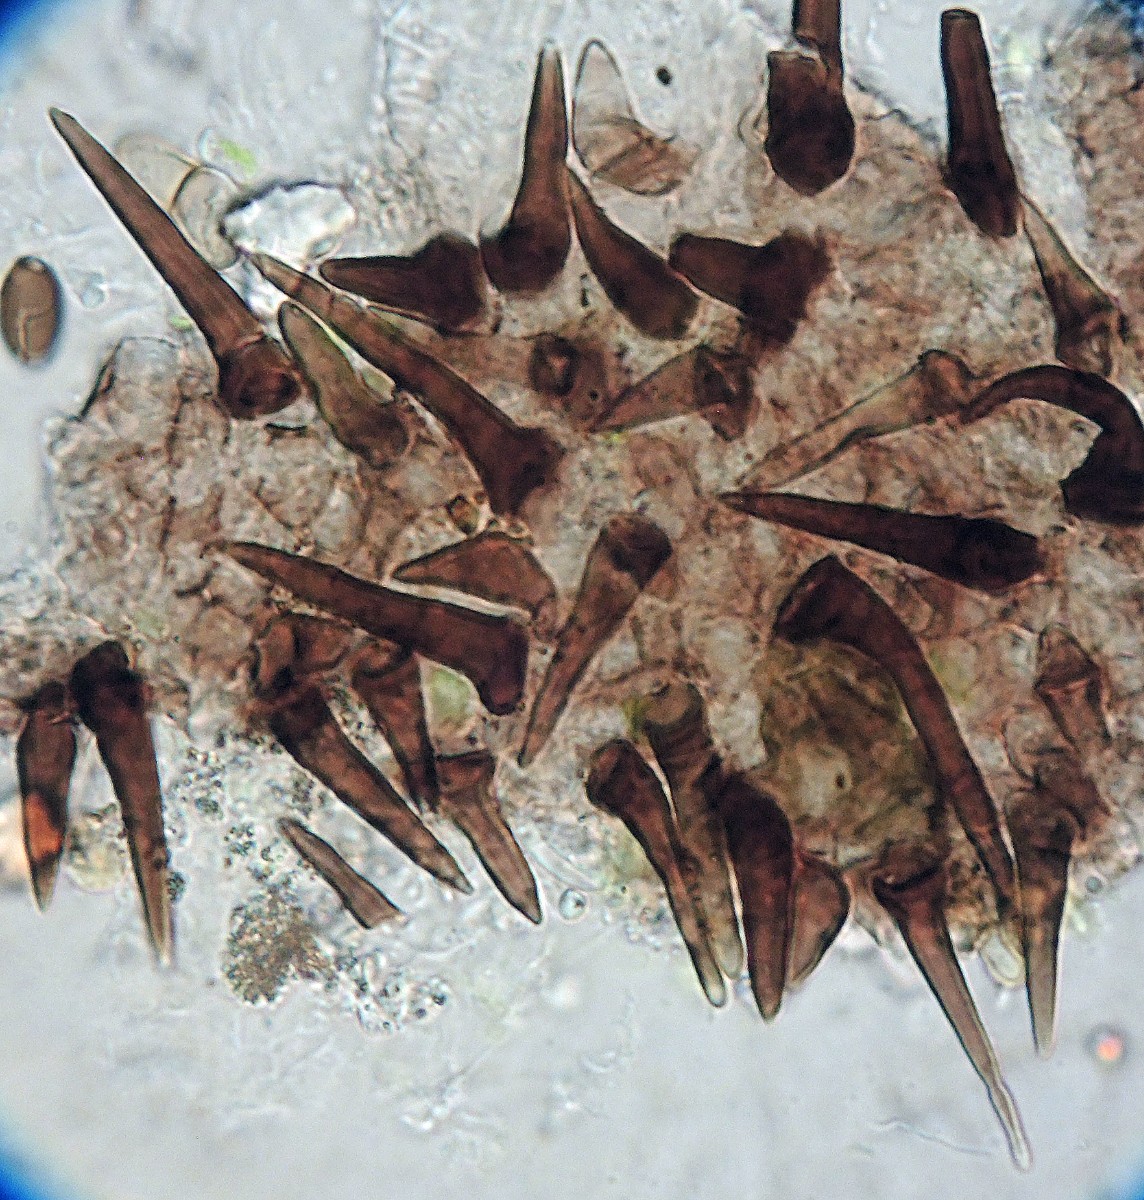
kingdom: Fungi
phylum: Ascomycota
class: Sordariomycetes
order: Hypocreales
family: Niessliaceae
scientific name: Niessliaceae
